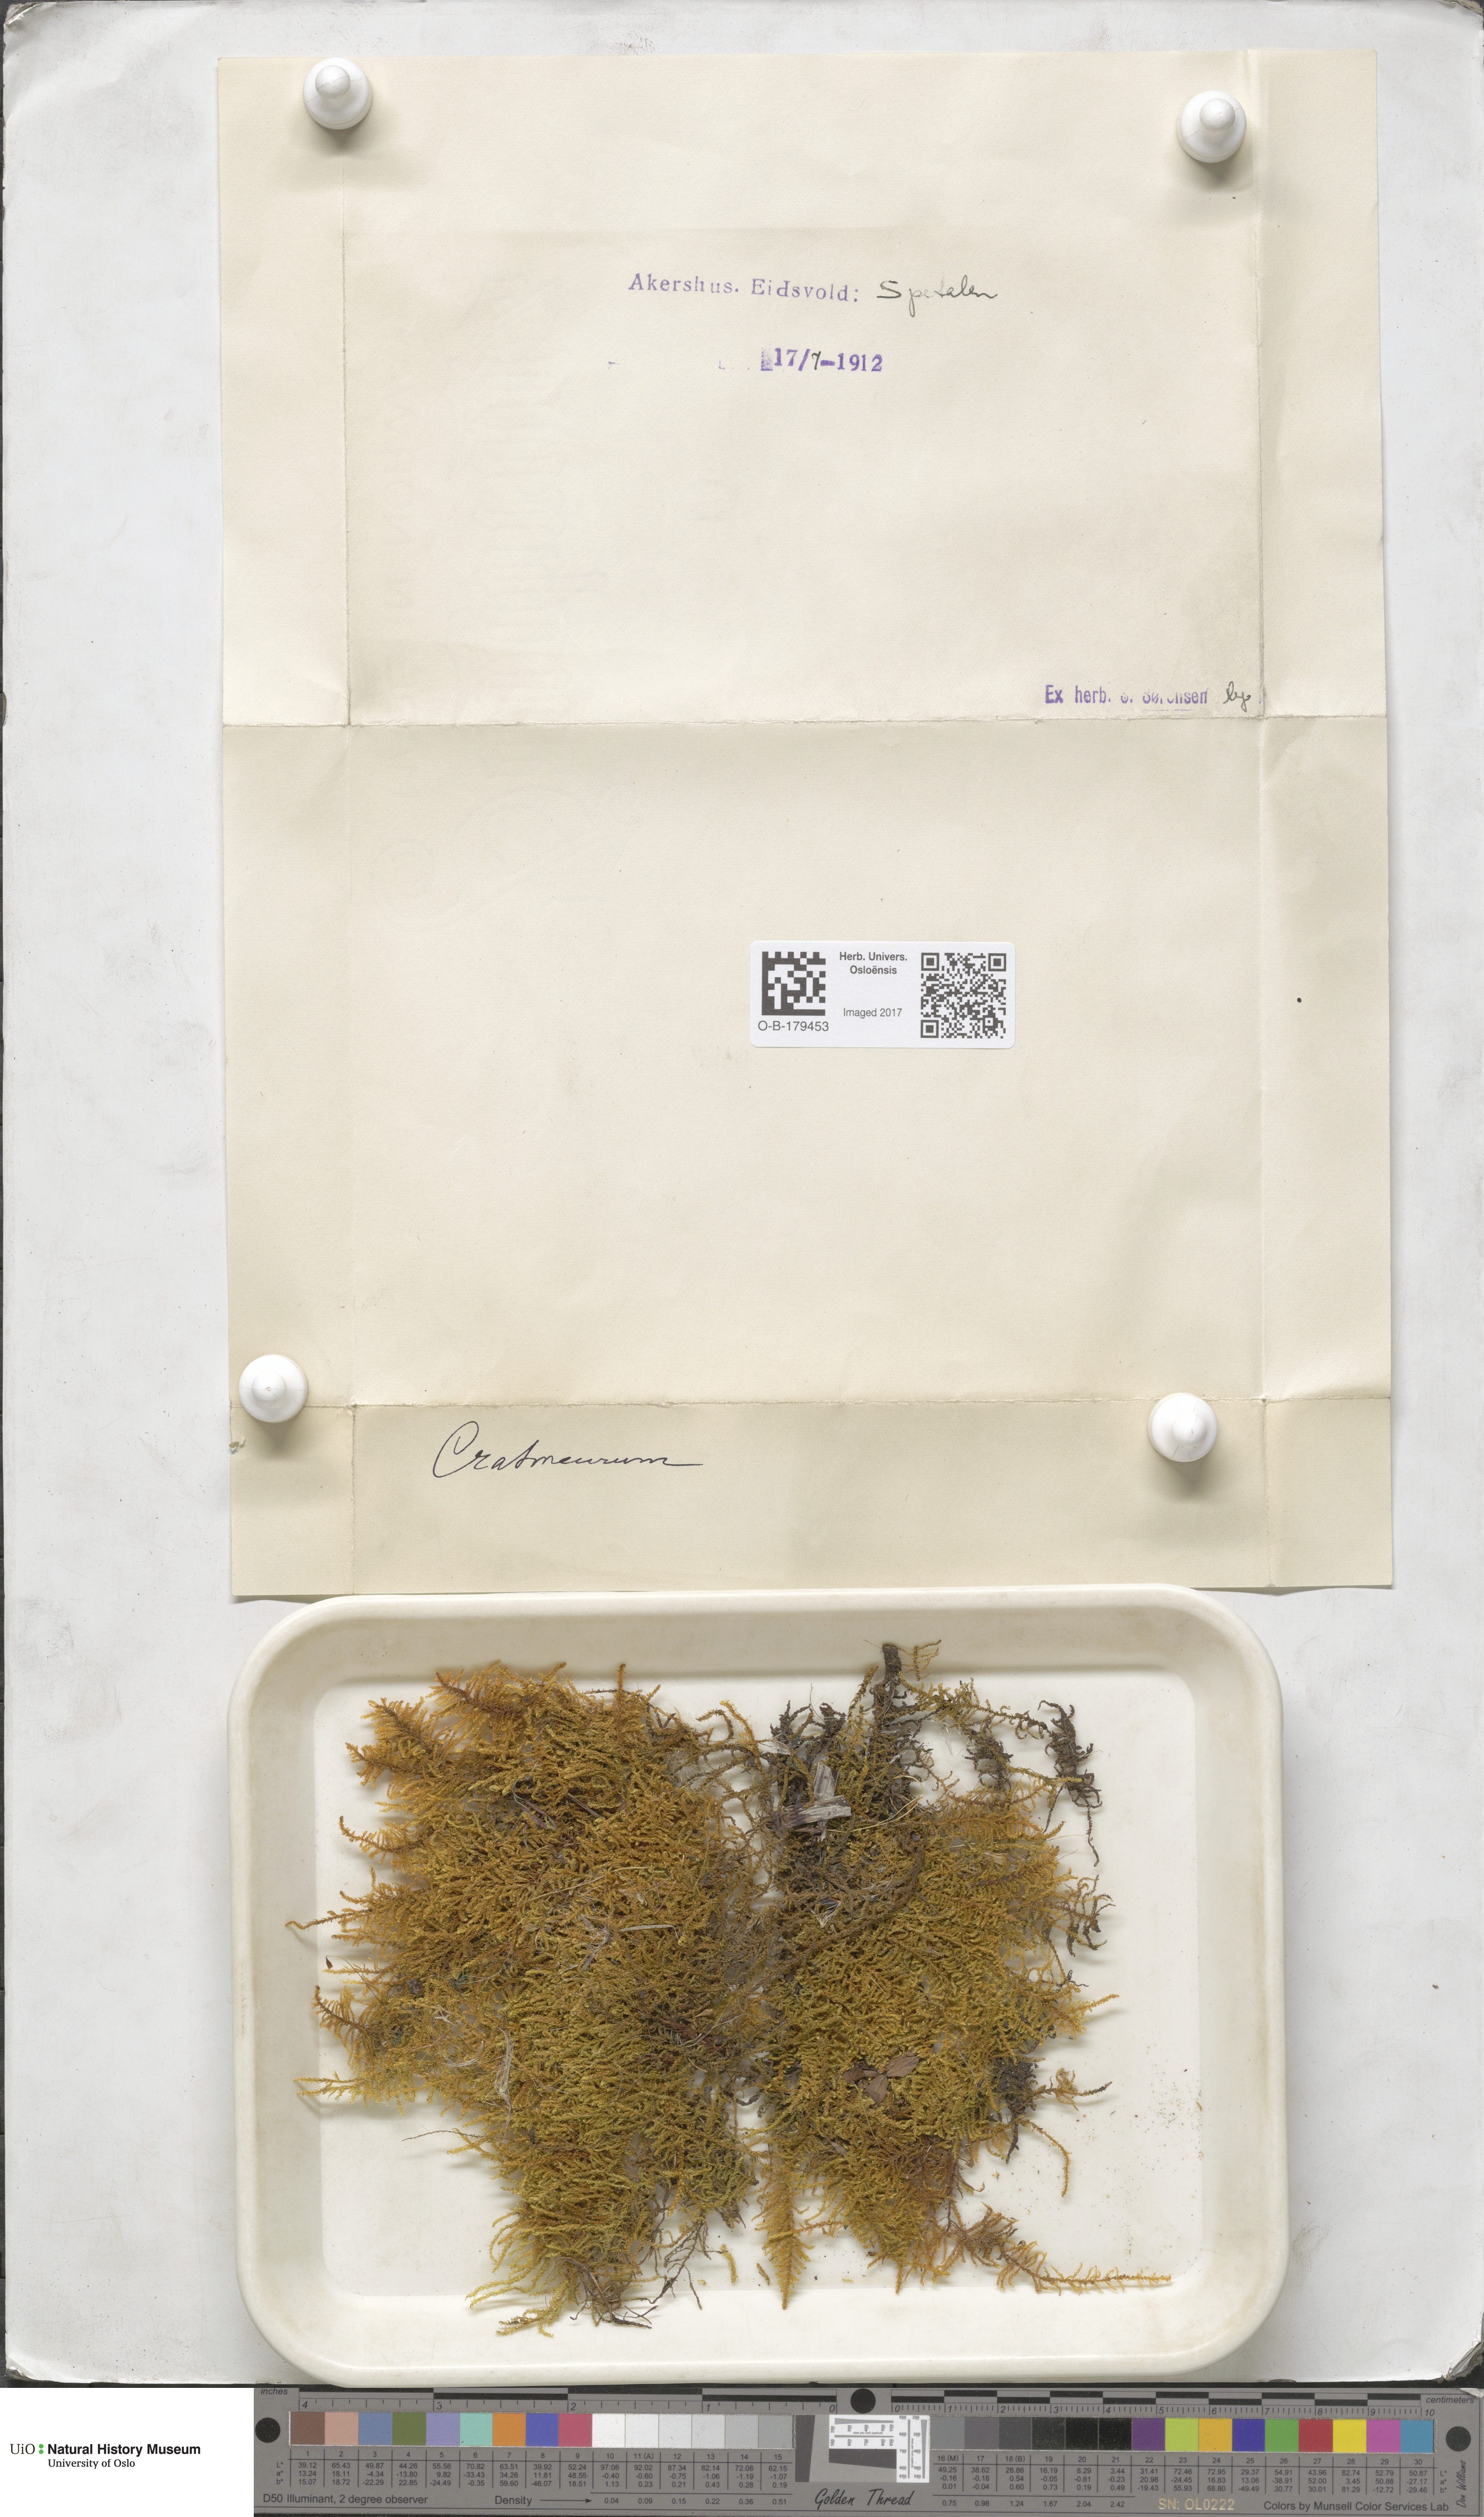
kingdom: Plantae
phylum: Bryophyta
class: Bryopsida
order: Hypnales
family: Amblystegiaceae
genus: Cratoneuron
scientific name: Cratoneuron
